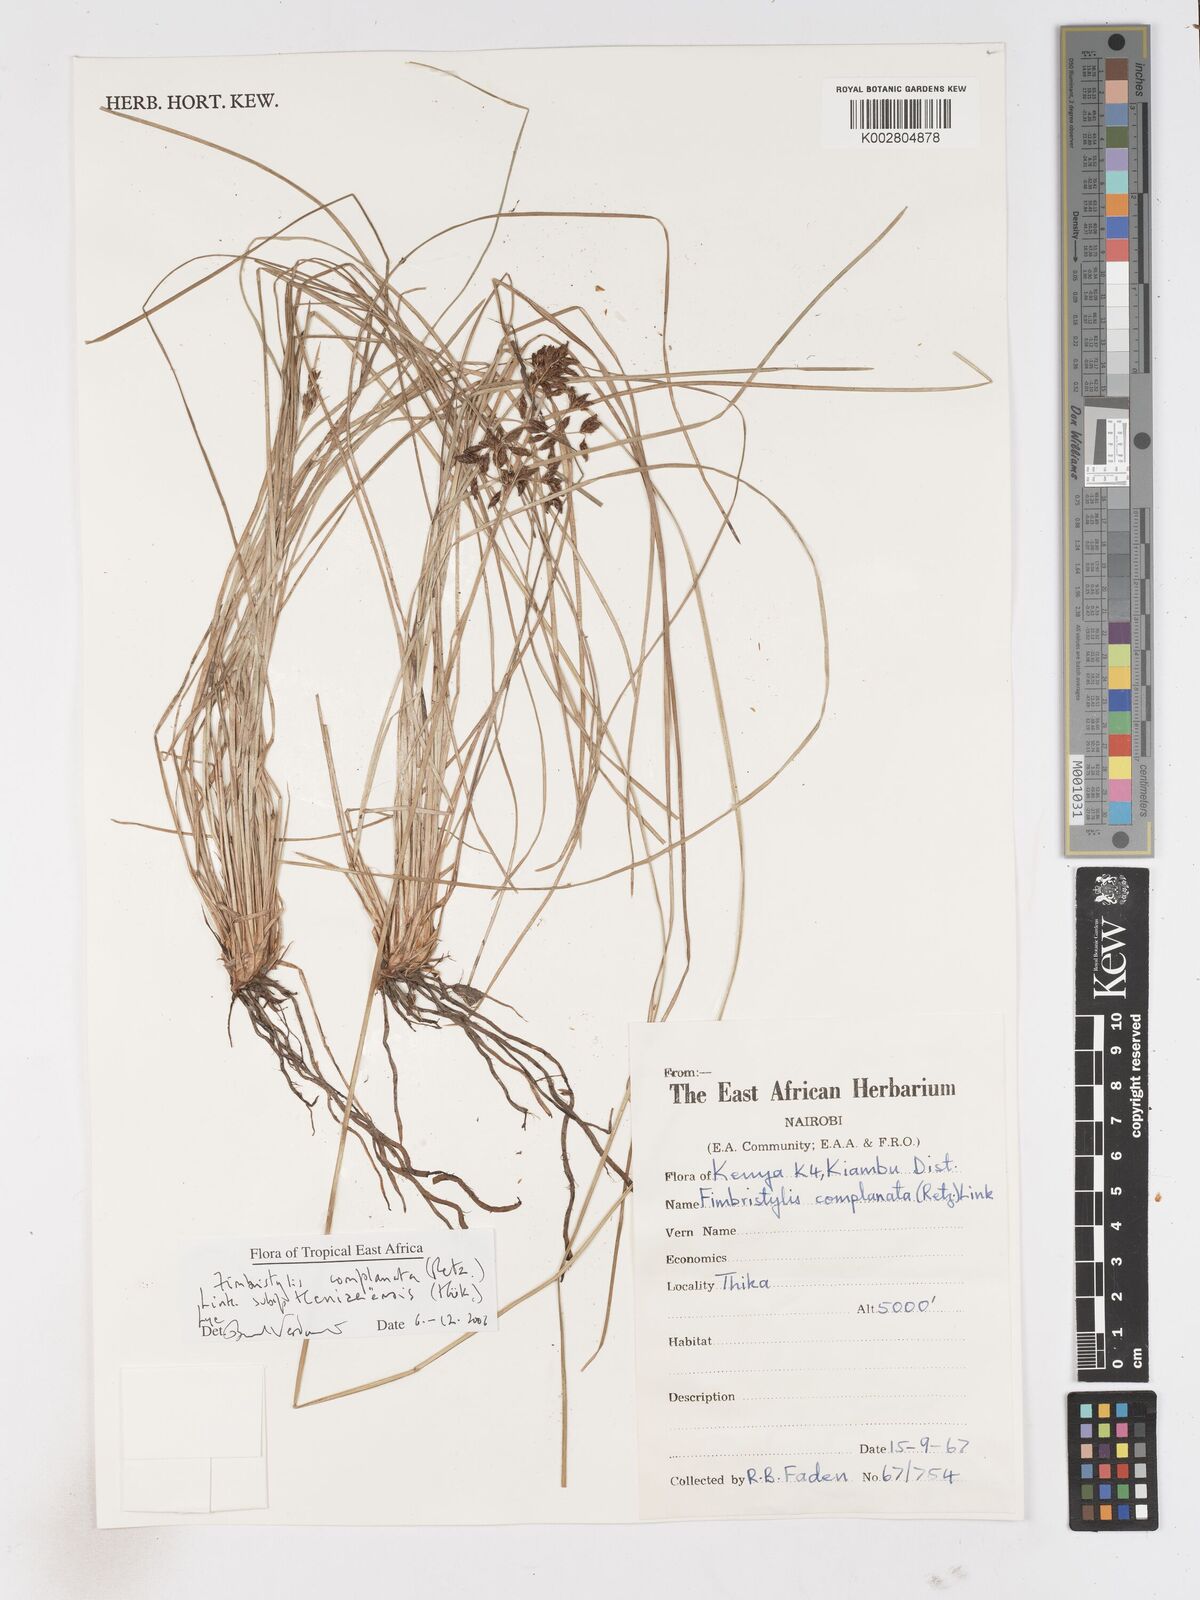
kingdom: Plantae
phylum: Tracheophyta
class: Liliopsida
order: Poales
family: Cyperaceae
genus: Fimbristylis
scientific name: Fimbristylis complanata
